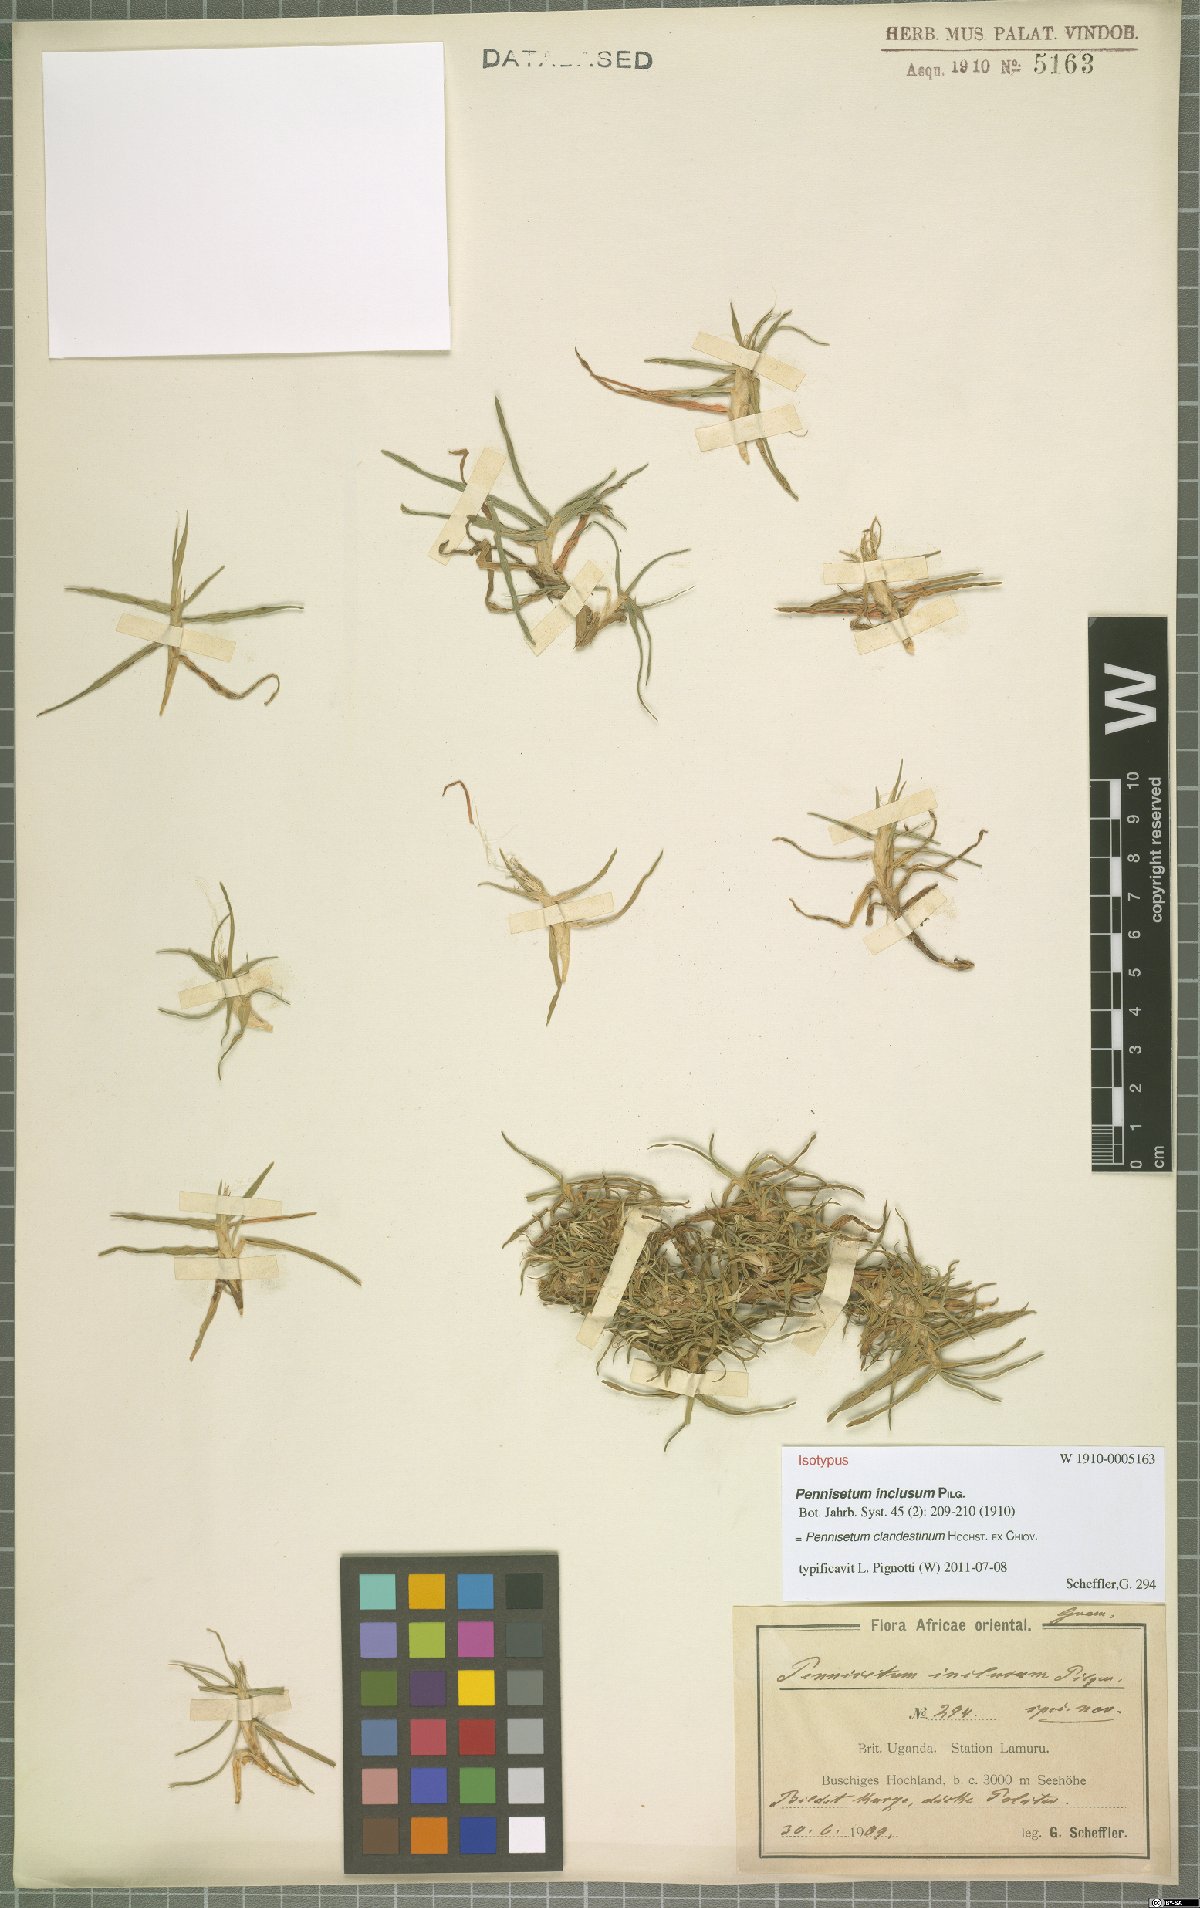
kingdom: Plantae
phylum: Tracheophyta
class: Liliopsida
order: Poales
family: Poaceae
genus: Cenchrus
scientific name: Cenchrus clandestinus
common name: Kikuyugrass
